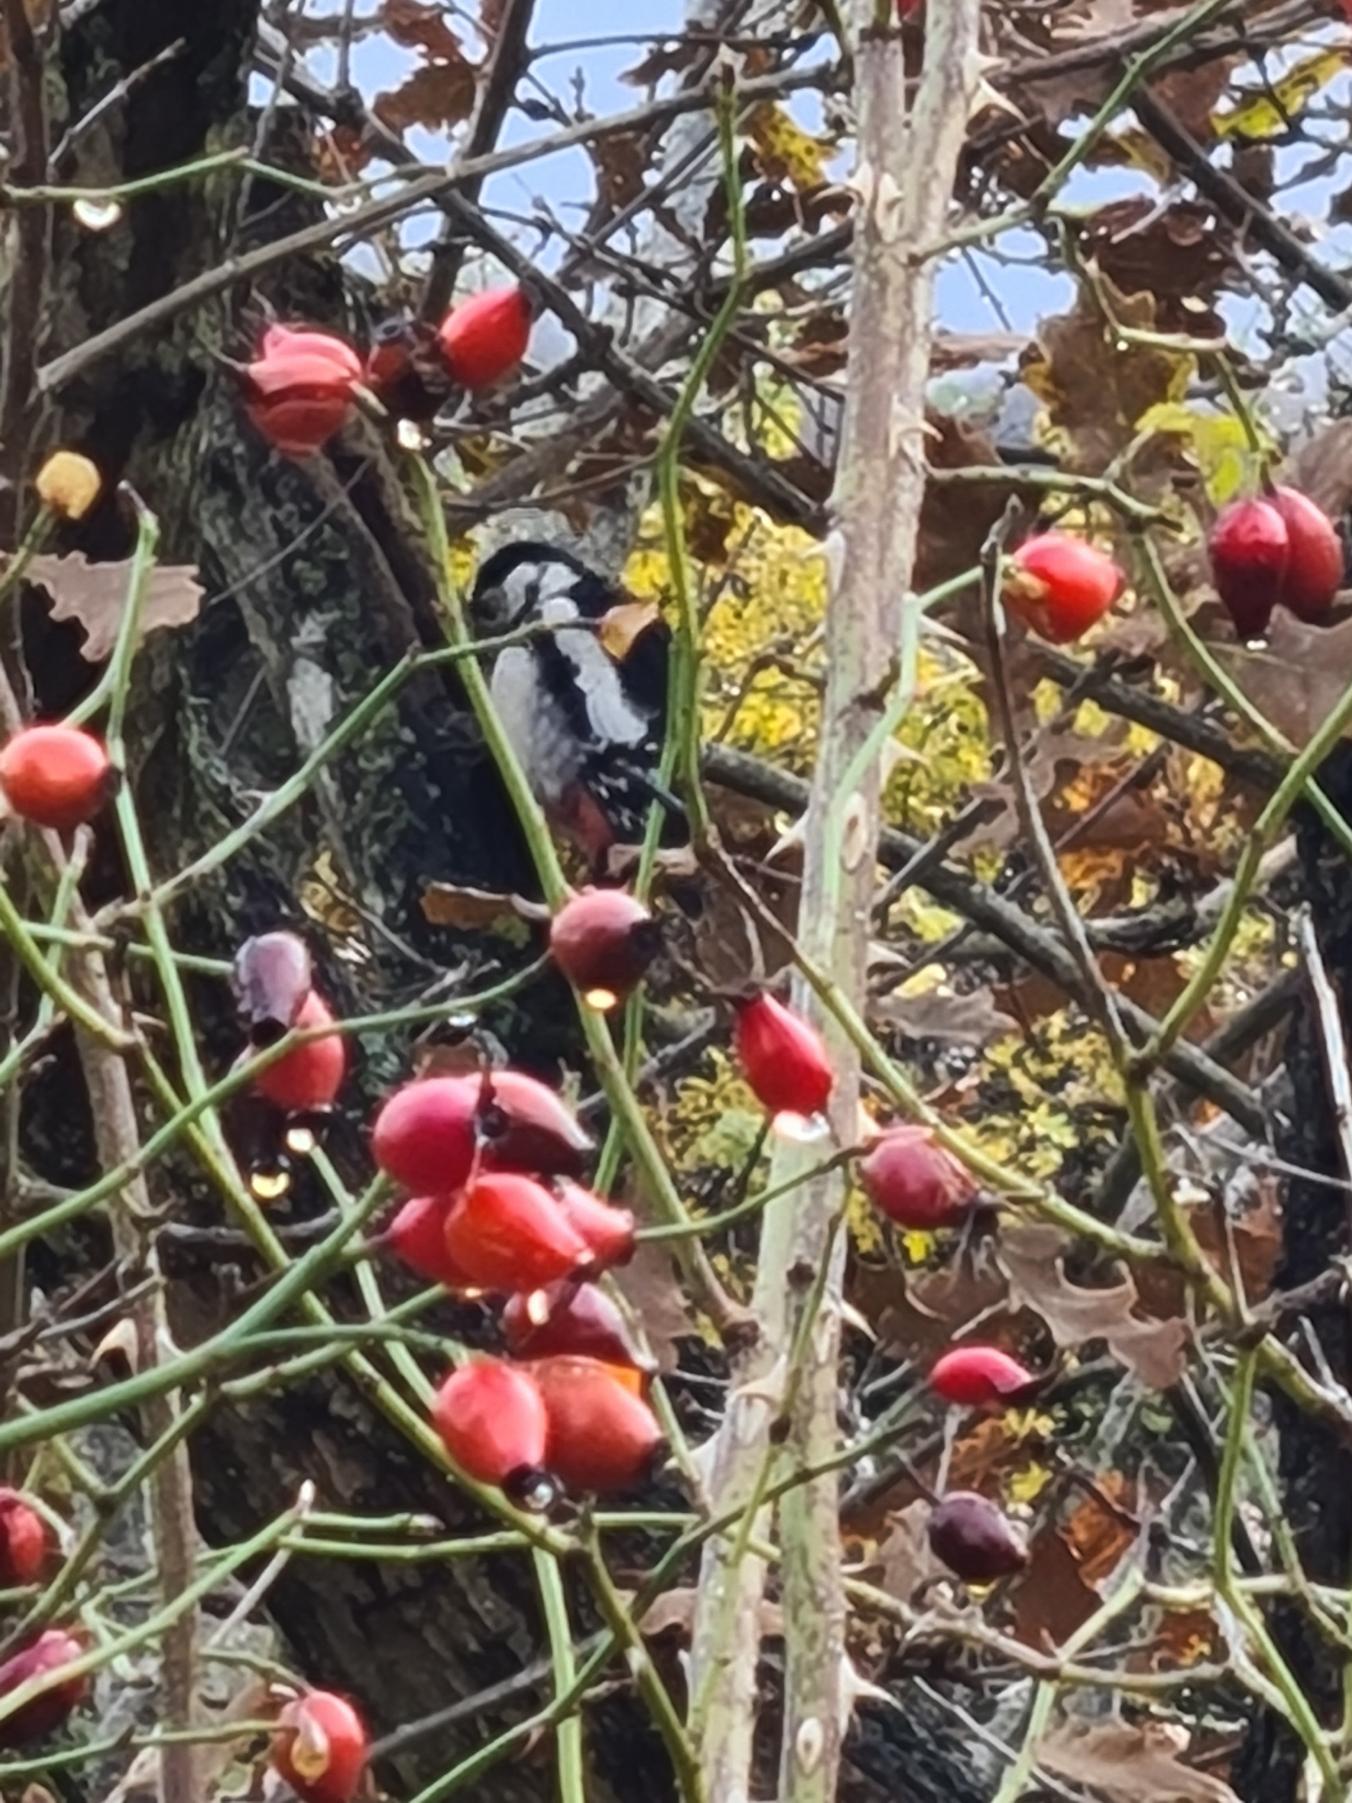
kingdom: Animalia
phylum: Chordata
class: Aves
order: Piciformes
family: Picidae
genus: Dendrocopos
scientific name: Dendrocopos major
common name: Stor flagspætte
